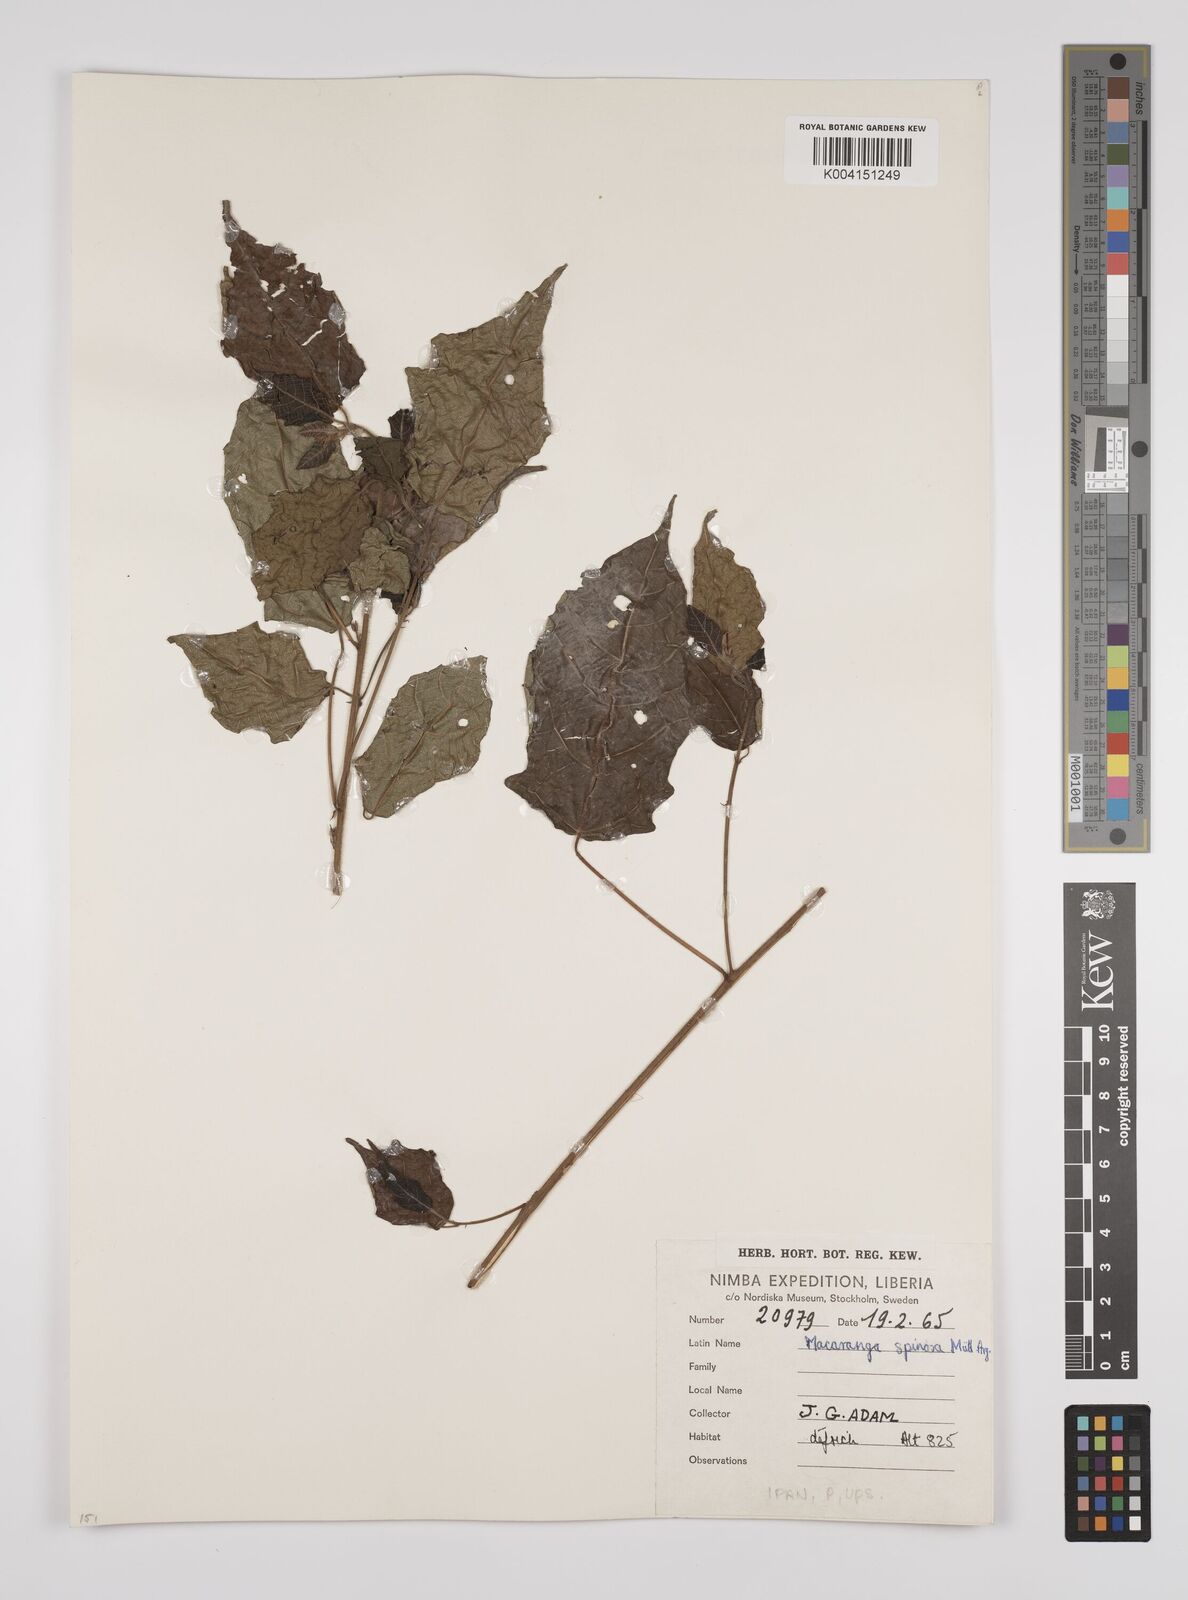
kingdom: Plantae
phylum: Tracheophyta
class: Magnoliopsida
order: Malpighiales
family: Euphorbiaceae
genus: Macaranga
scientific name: Macaranga spinosa
